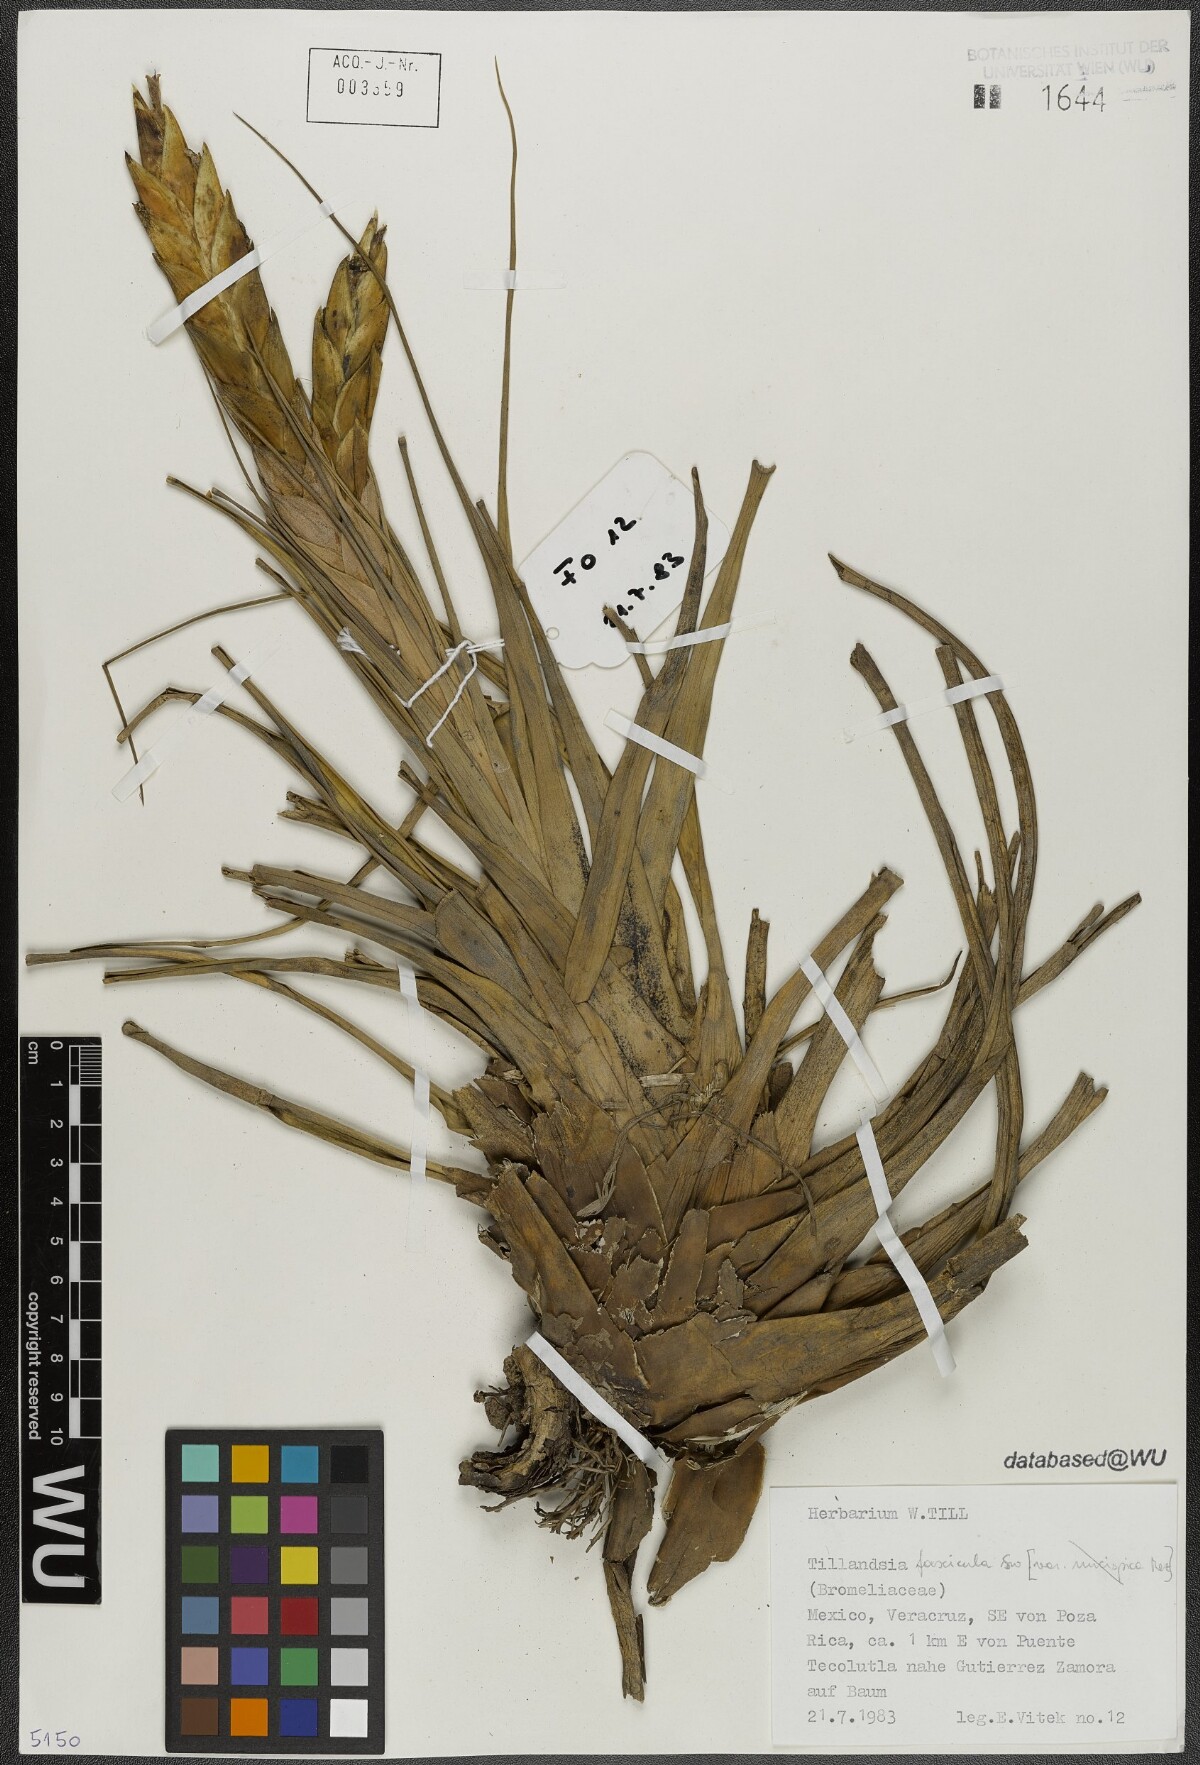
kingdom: Plantae
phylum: Tracheophyta
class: Liliopsida
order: Poales
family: Bromeliaceae
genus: Tillandsia
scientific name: Tillandsia fasciculata
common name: Giant airplant
